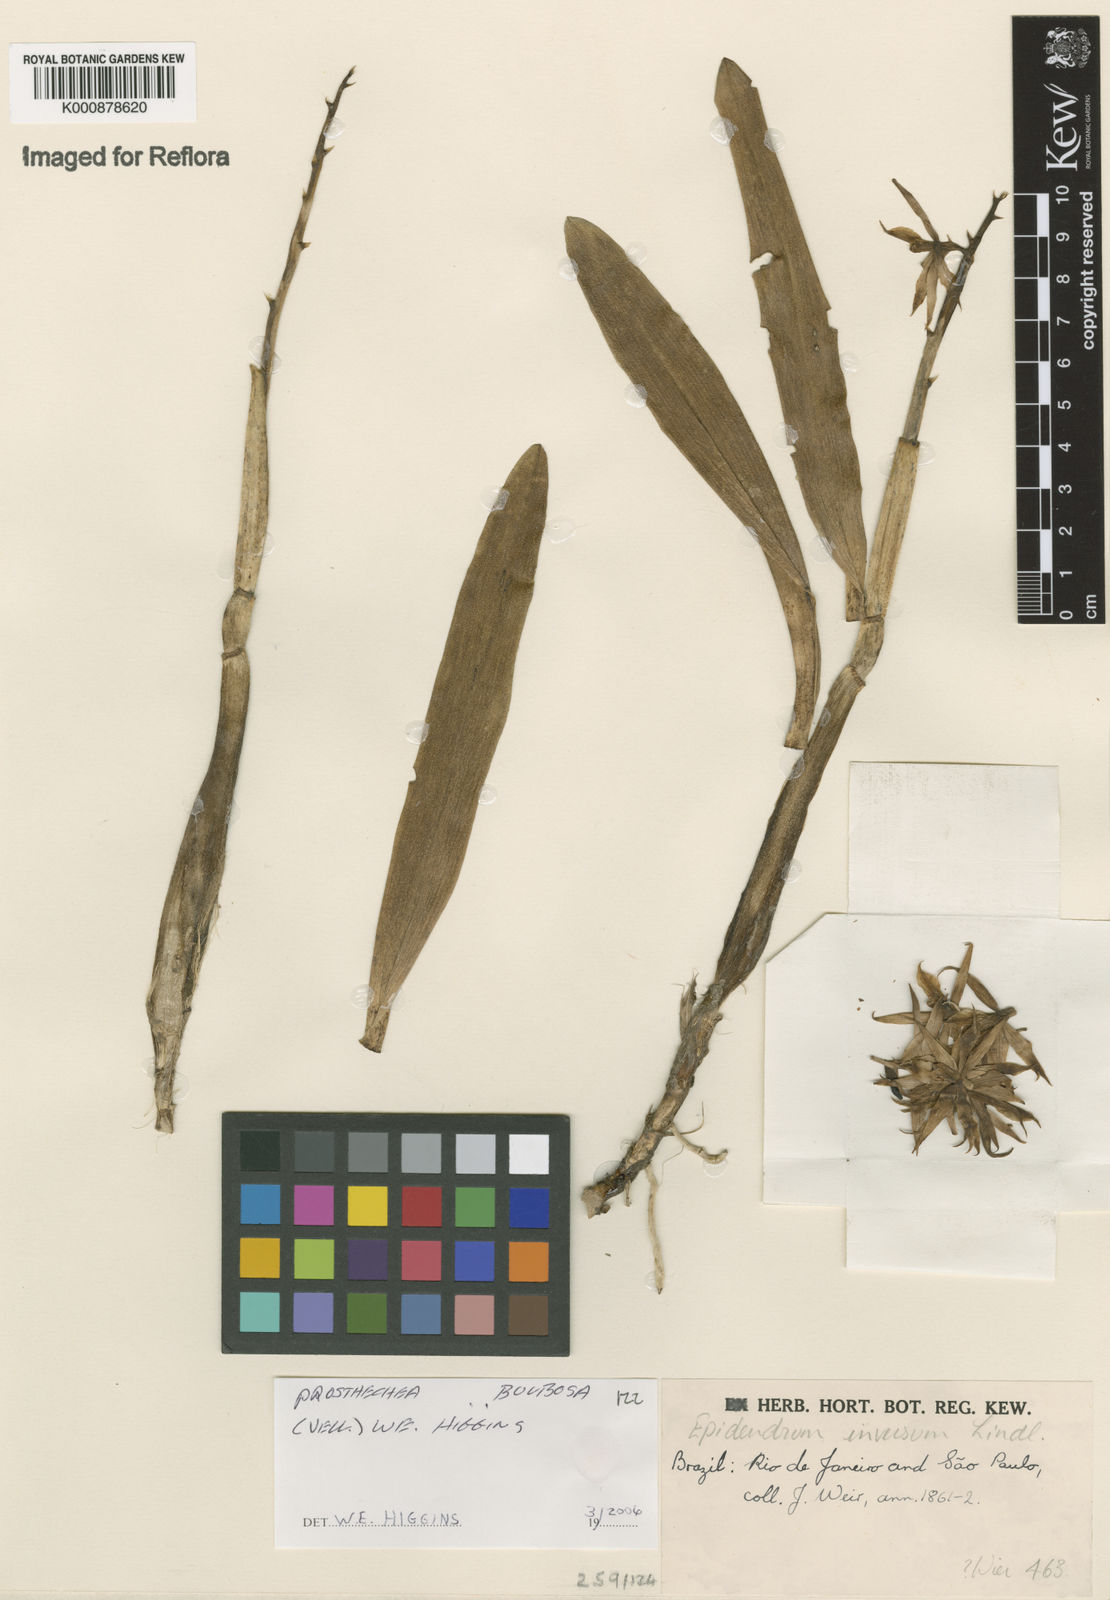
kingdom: Plantae
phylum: Tracheophyta
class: Liliopsida
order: Asparagales
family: Orchidaceae
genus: Prosthechea
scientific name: Prosthechea bulbosa
